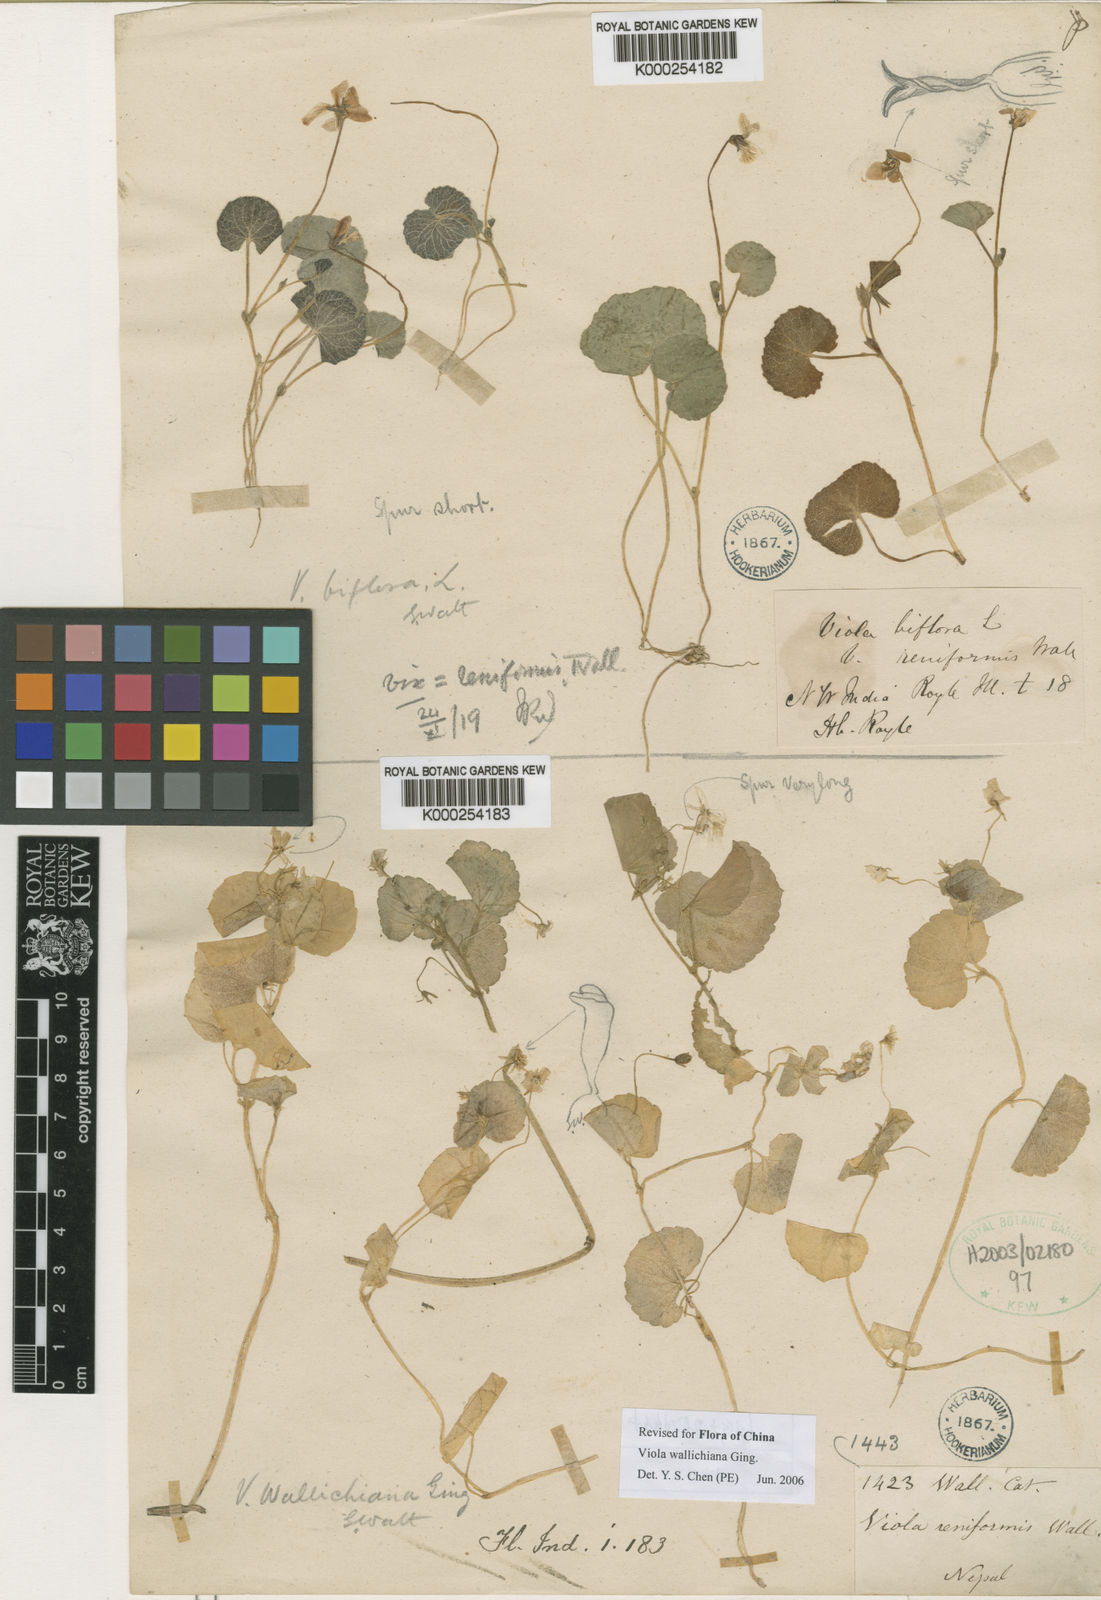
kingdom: Plantae
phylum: Tracheophyta
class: Magnoliopsida
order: Malpighiales
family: Violaceae
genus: Viola
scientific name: Viola wallichiana
